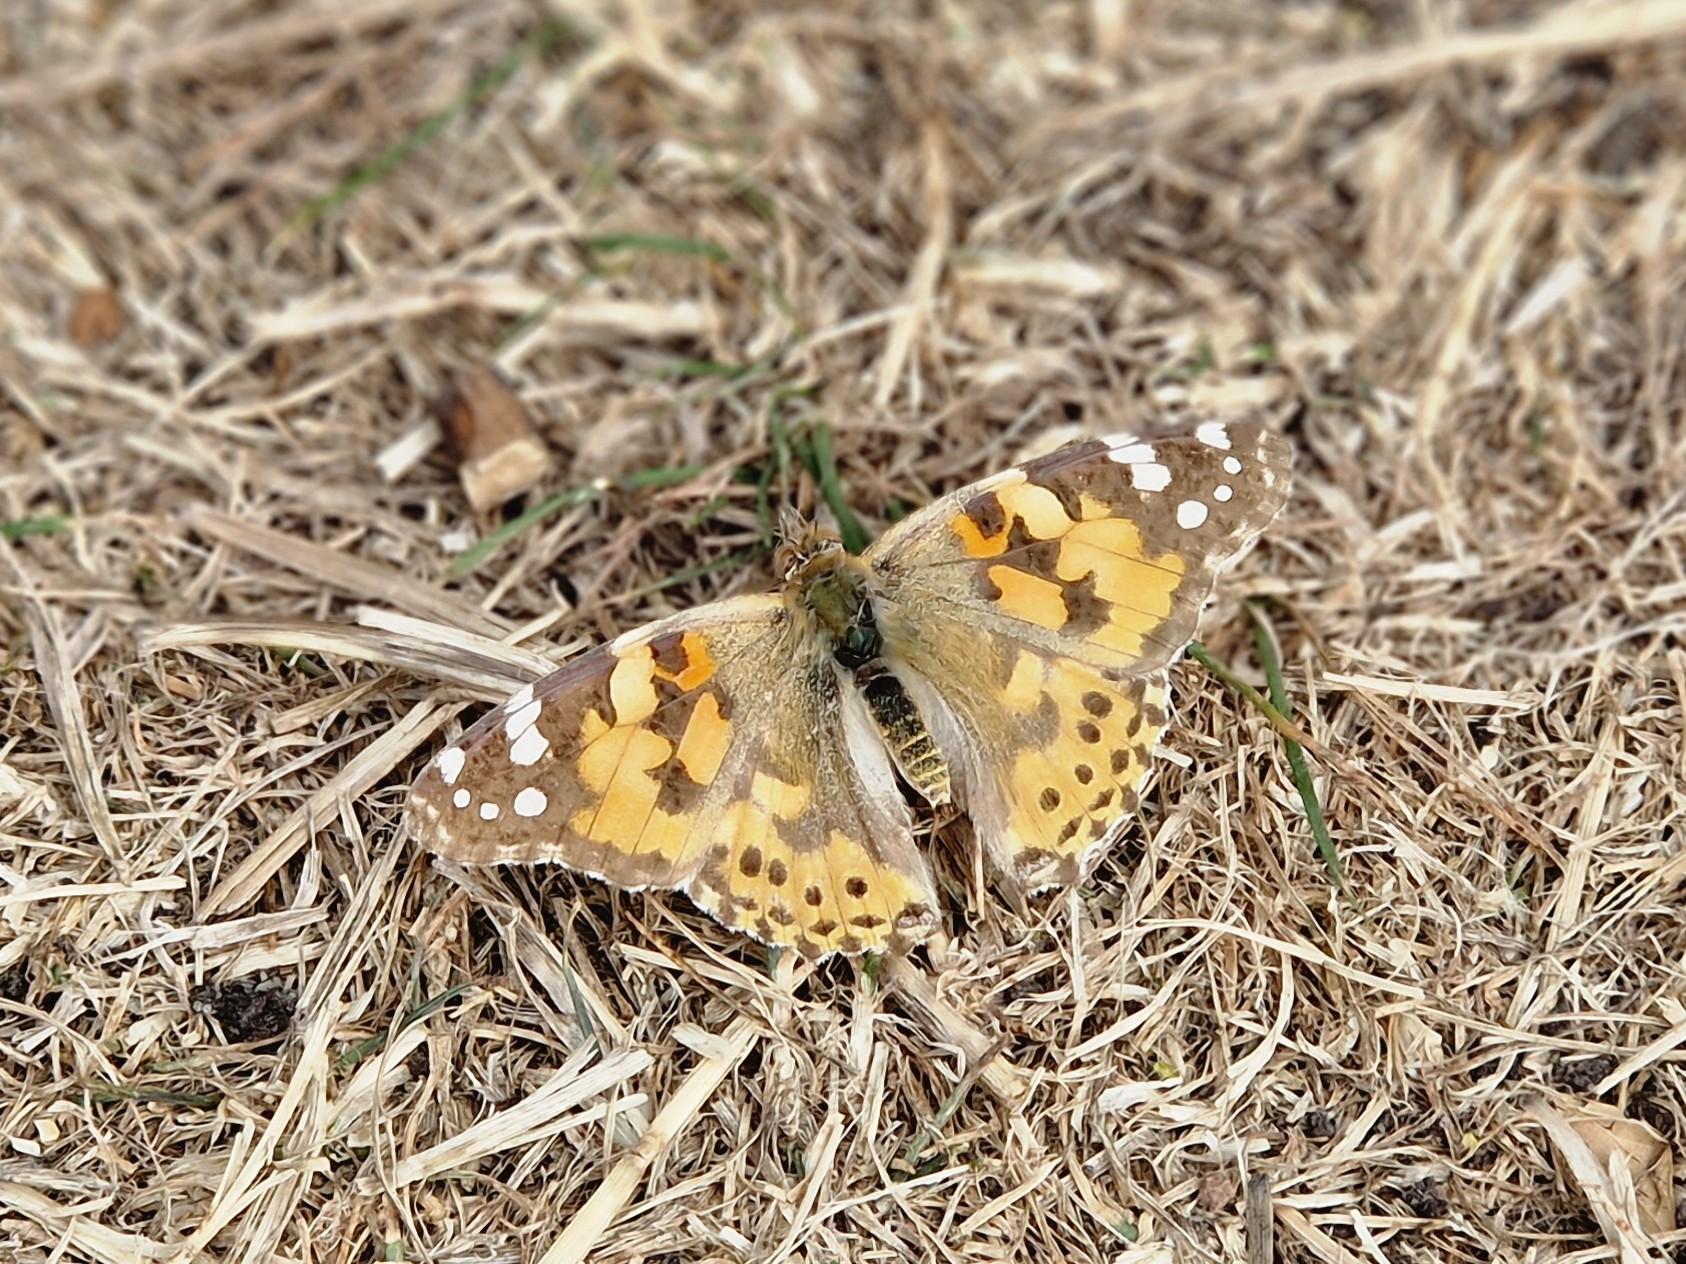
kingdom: Animalia
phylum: Arthropoda
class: Insecta
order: Lepidoptera
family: Nymphalidae
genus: Vanessa
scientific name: Vanessa cardui
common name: Tidselsommerfugl
